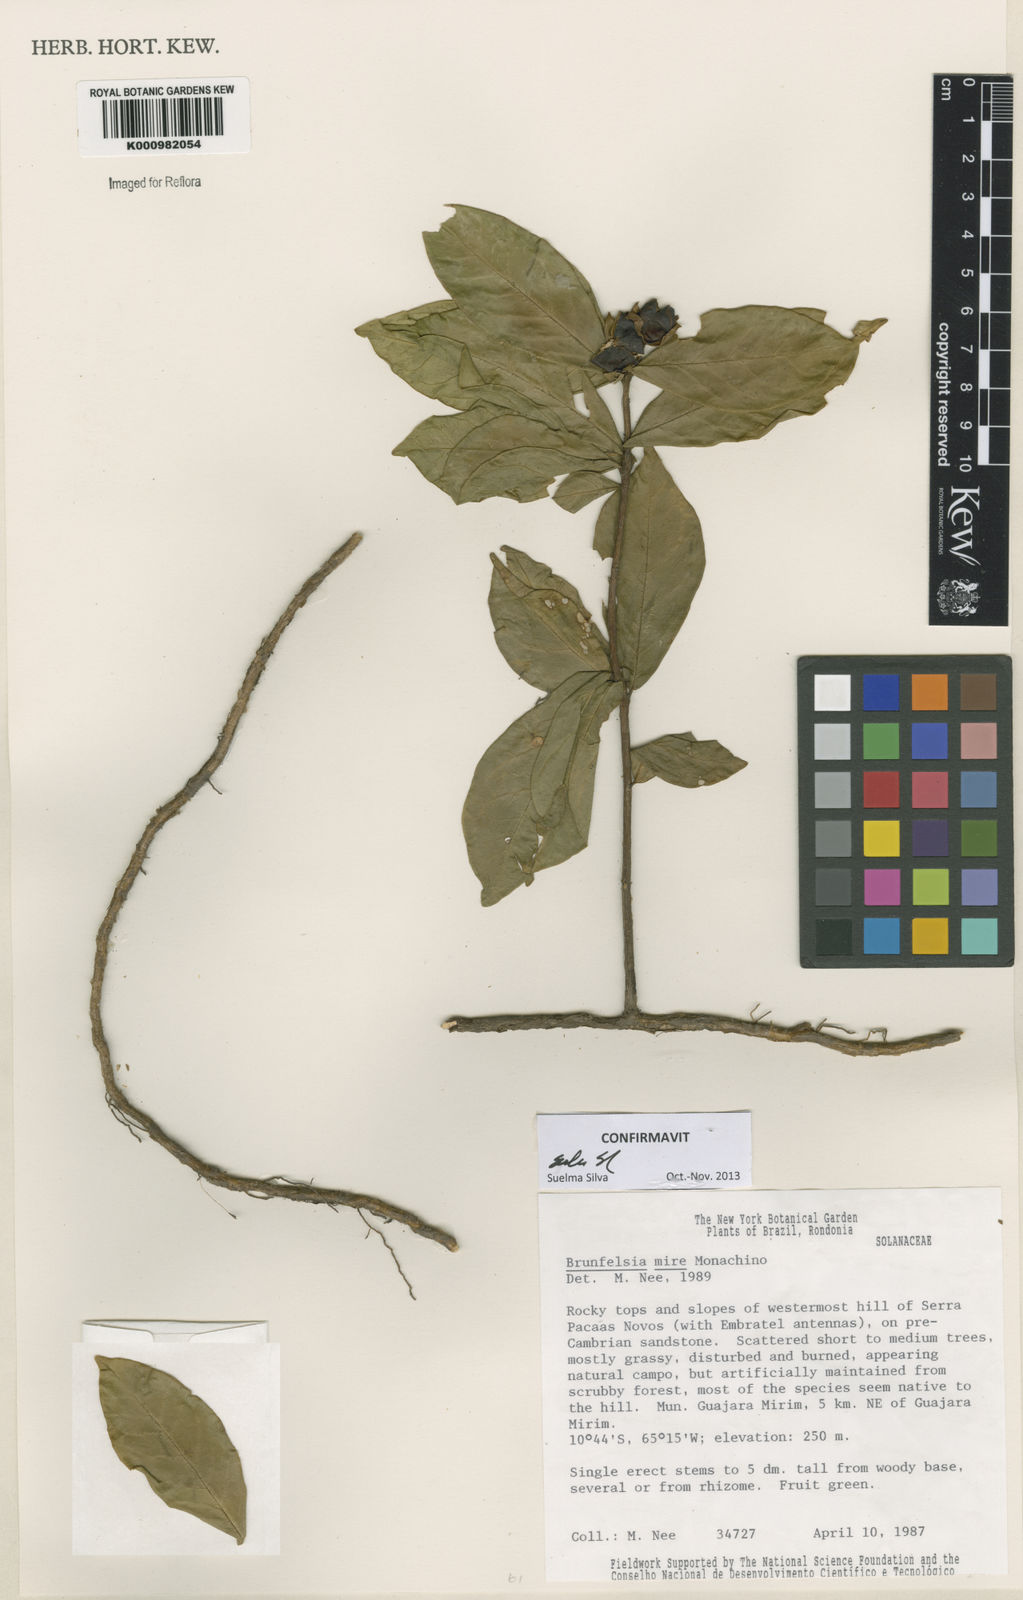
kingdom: Plantae
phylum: Tracheophyta
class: Magnoliopsida
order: Solanales
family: Solanaceae
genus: Brunfelsia
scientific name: Brunfelsia mire
